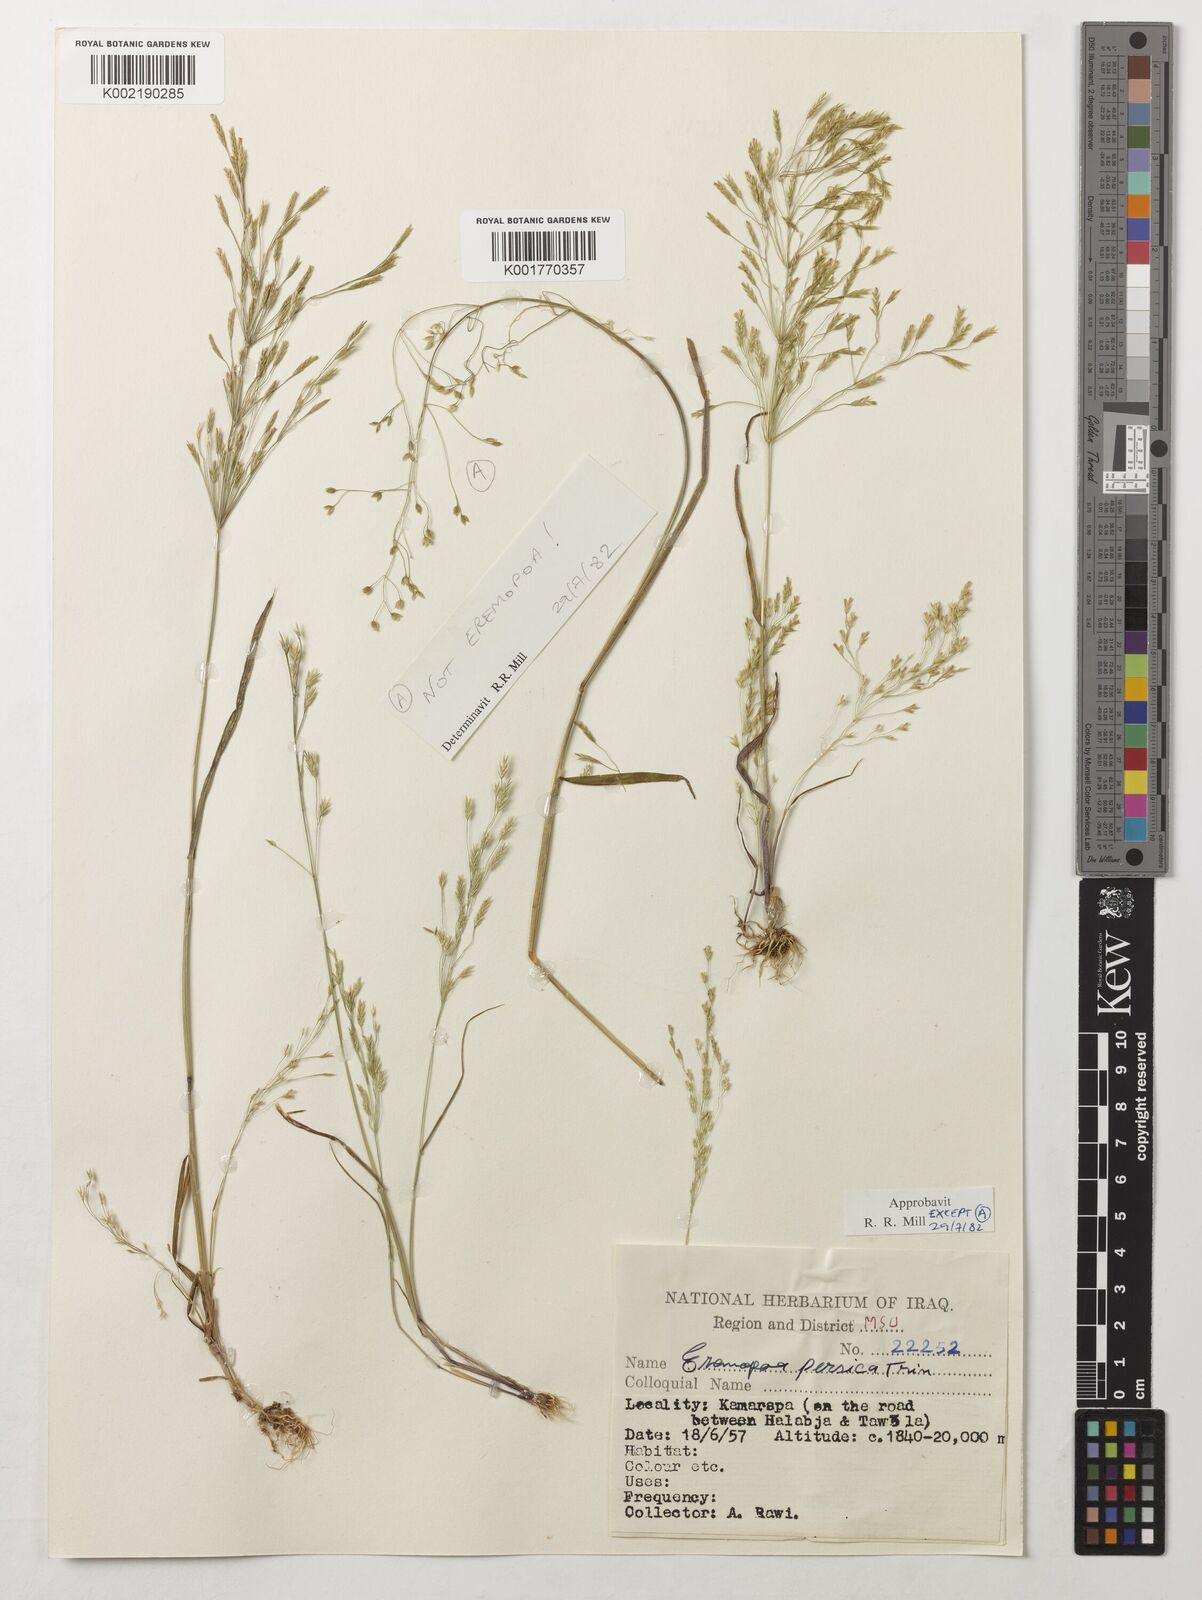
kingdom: Plantae
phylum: Tracheophyta
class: Liliopsida
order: Poales
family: Poaceae
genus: Poa
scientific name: Poa persica
